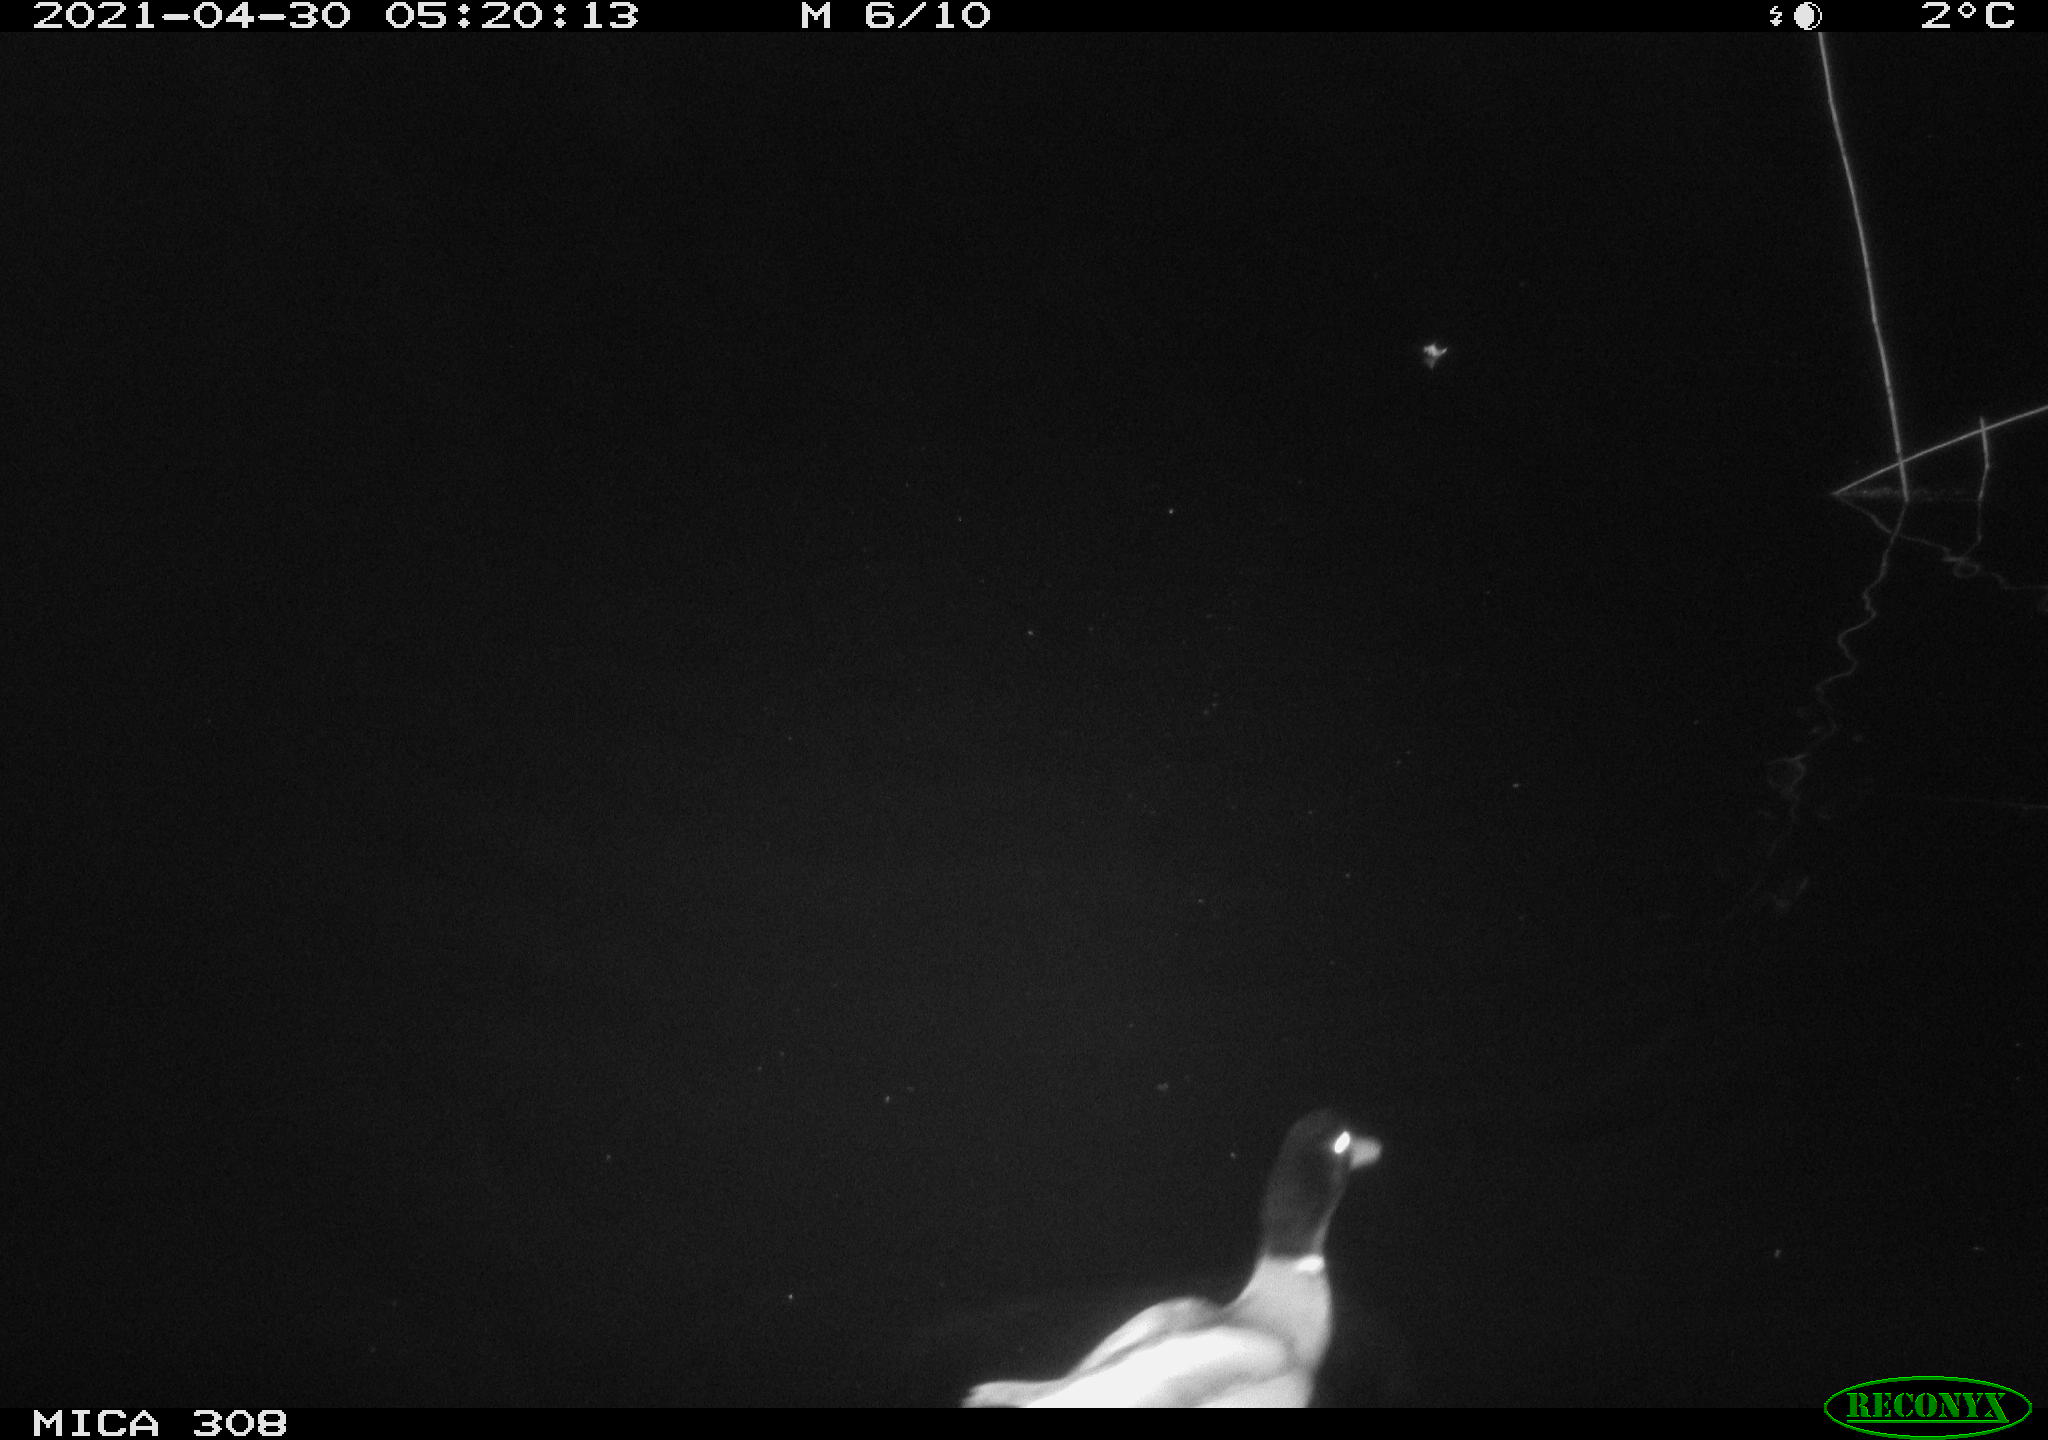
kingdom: Animalia
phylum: Chordata
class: Aves
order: Anseriformes
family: Anatidae
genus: Anas
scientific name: Anas platyrhynchos
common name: Mallard
